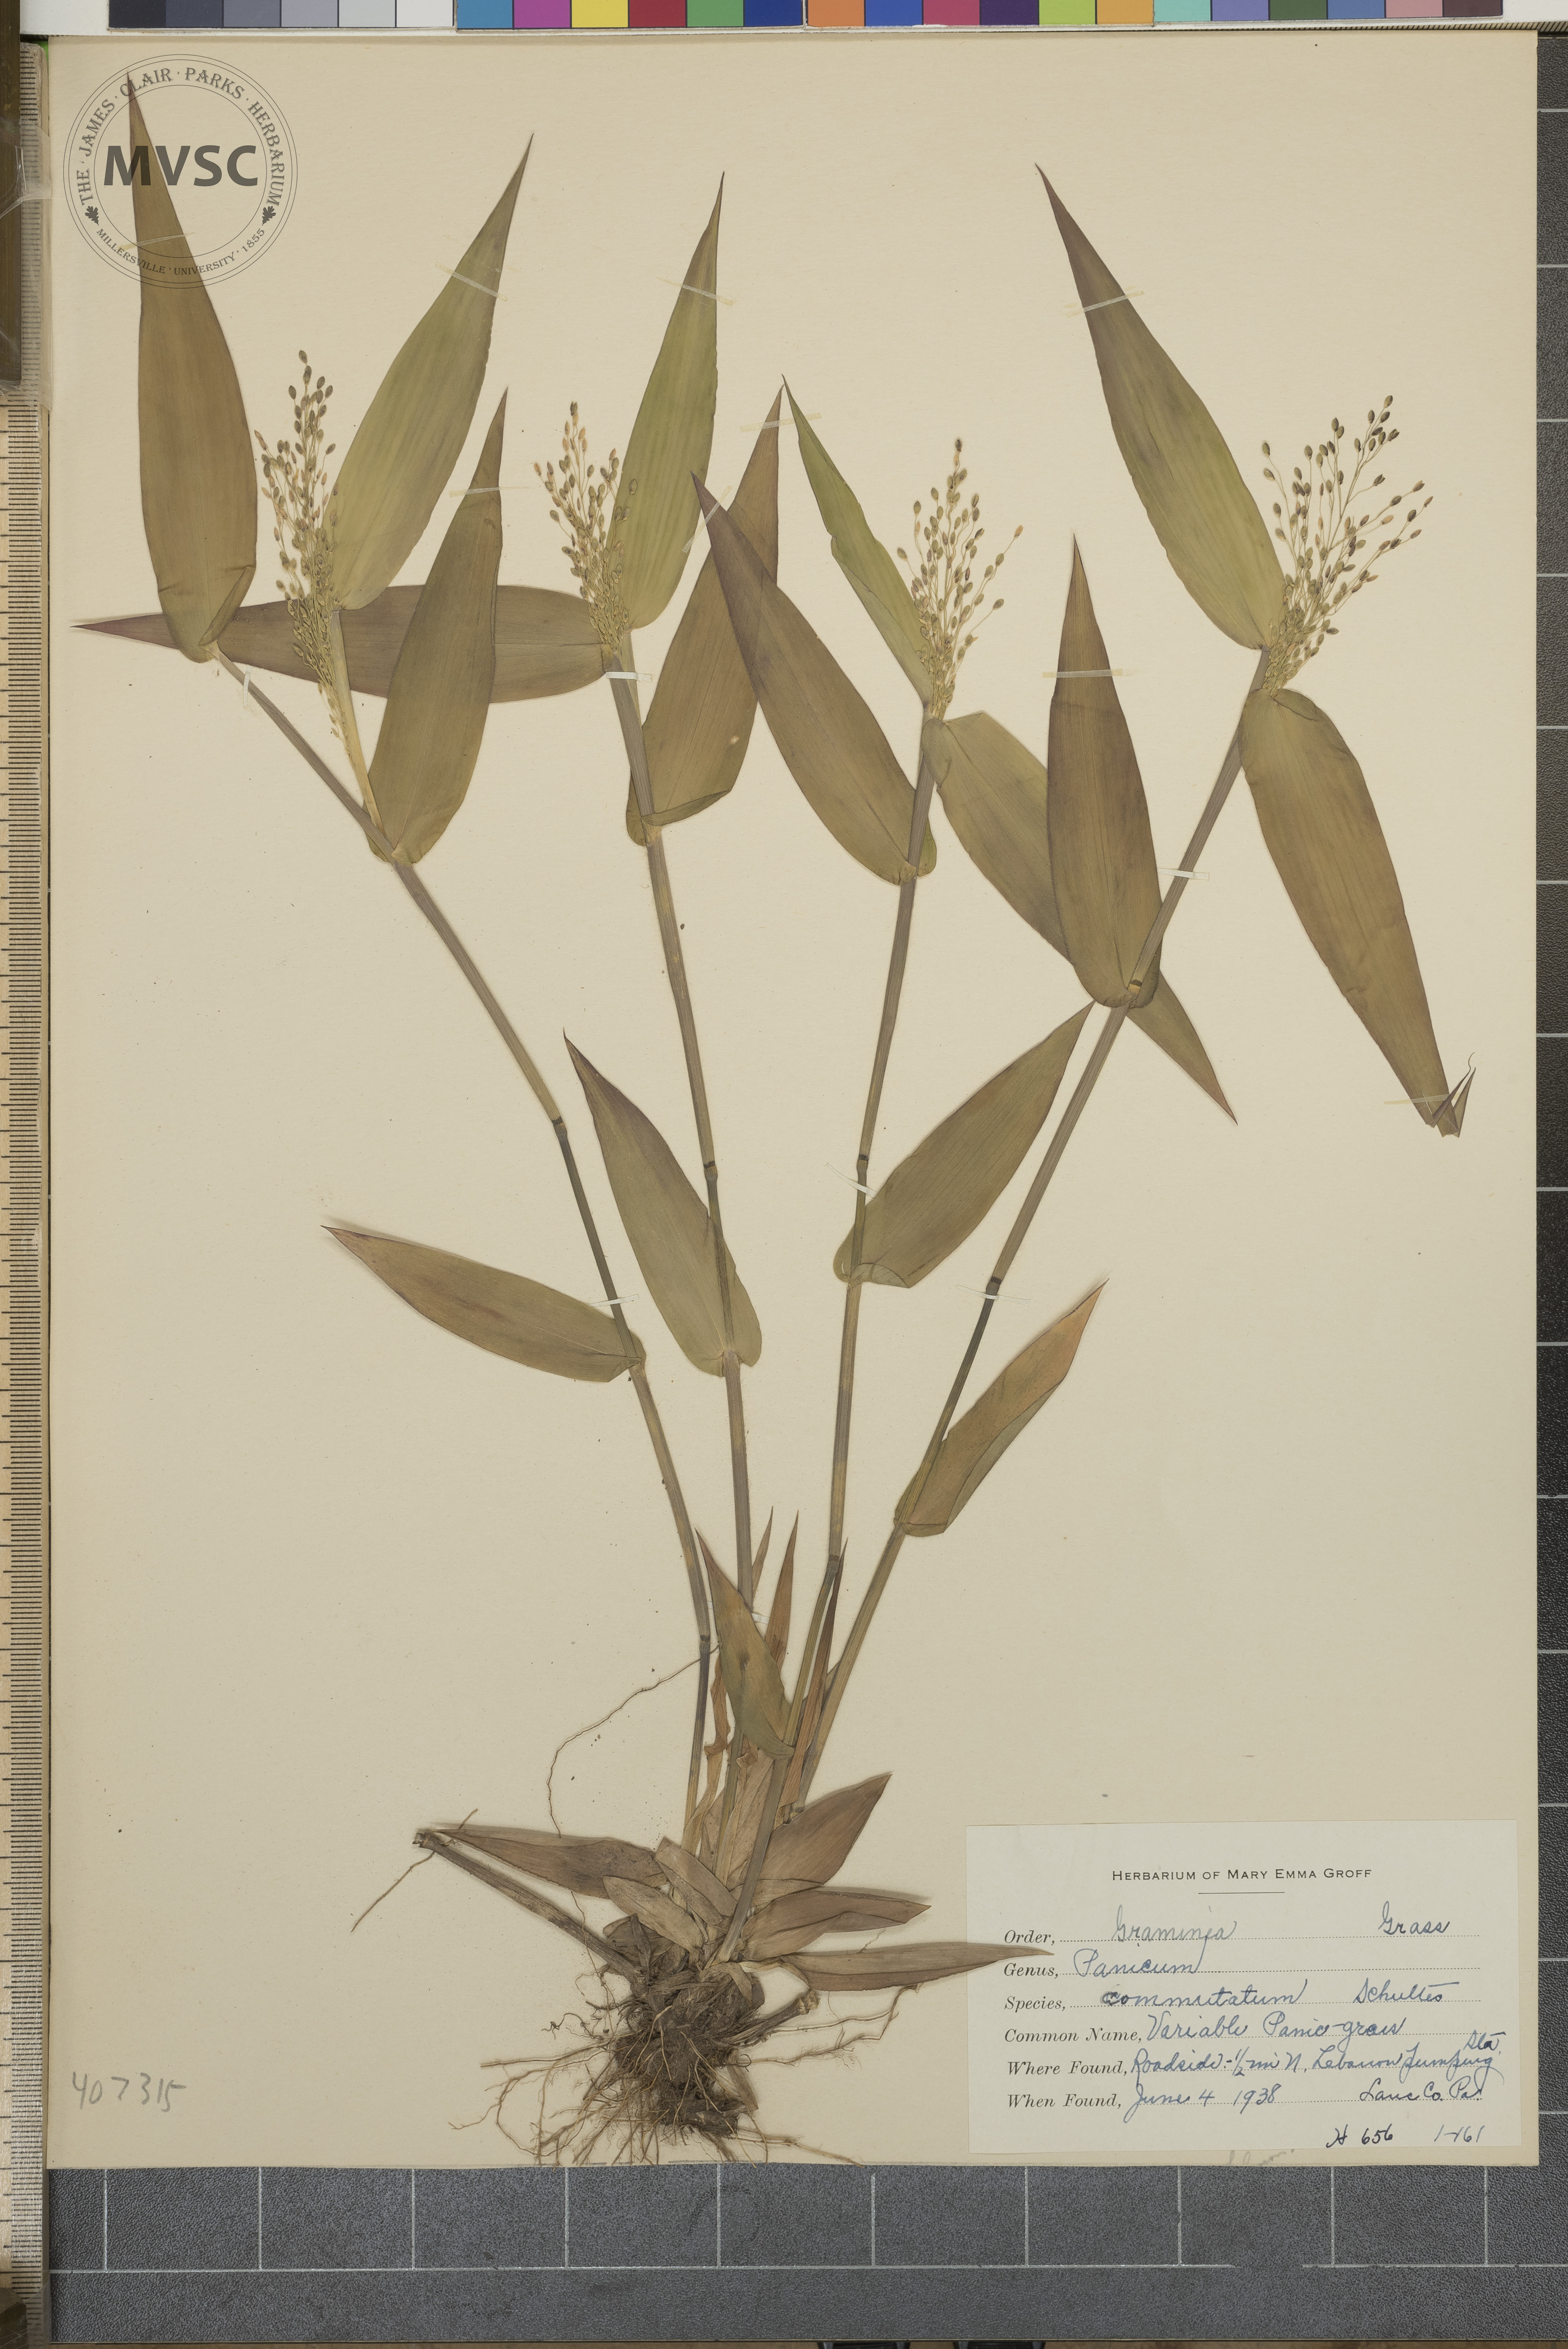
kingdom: Plantae
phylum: Tracheophyta
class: Liliopsida
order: Poales
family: Poaceae
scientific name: Poaceae
